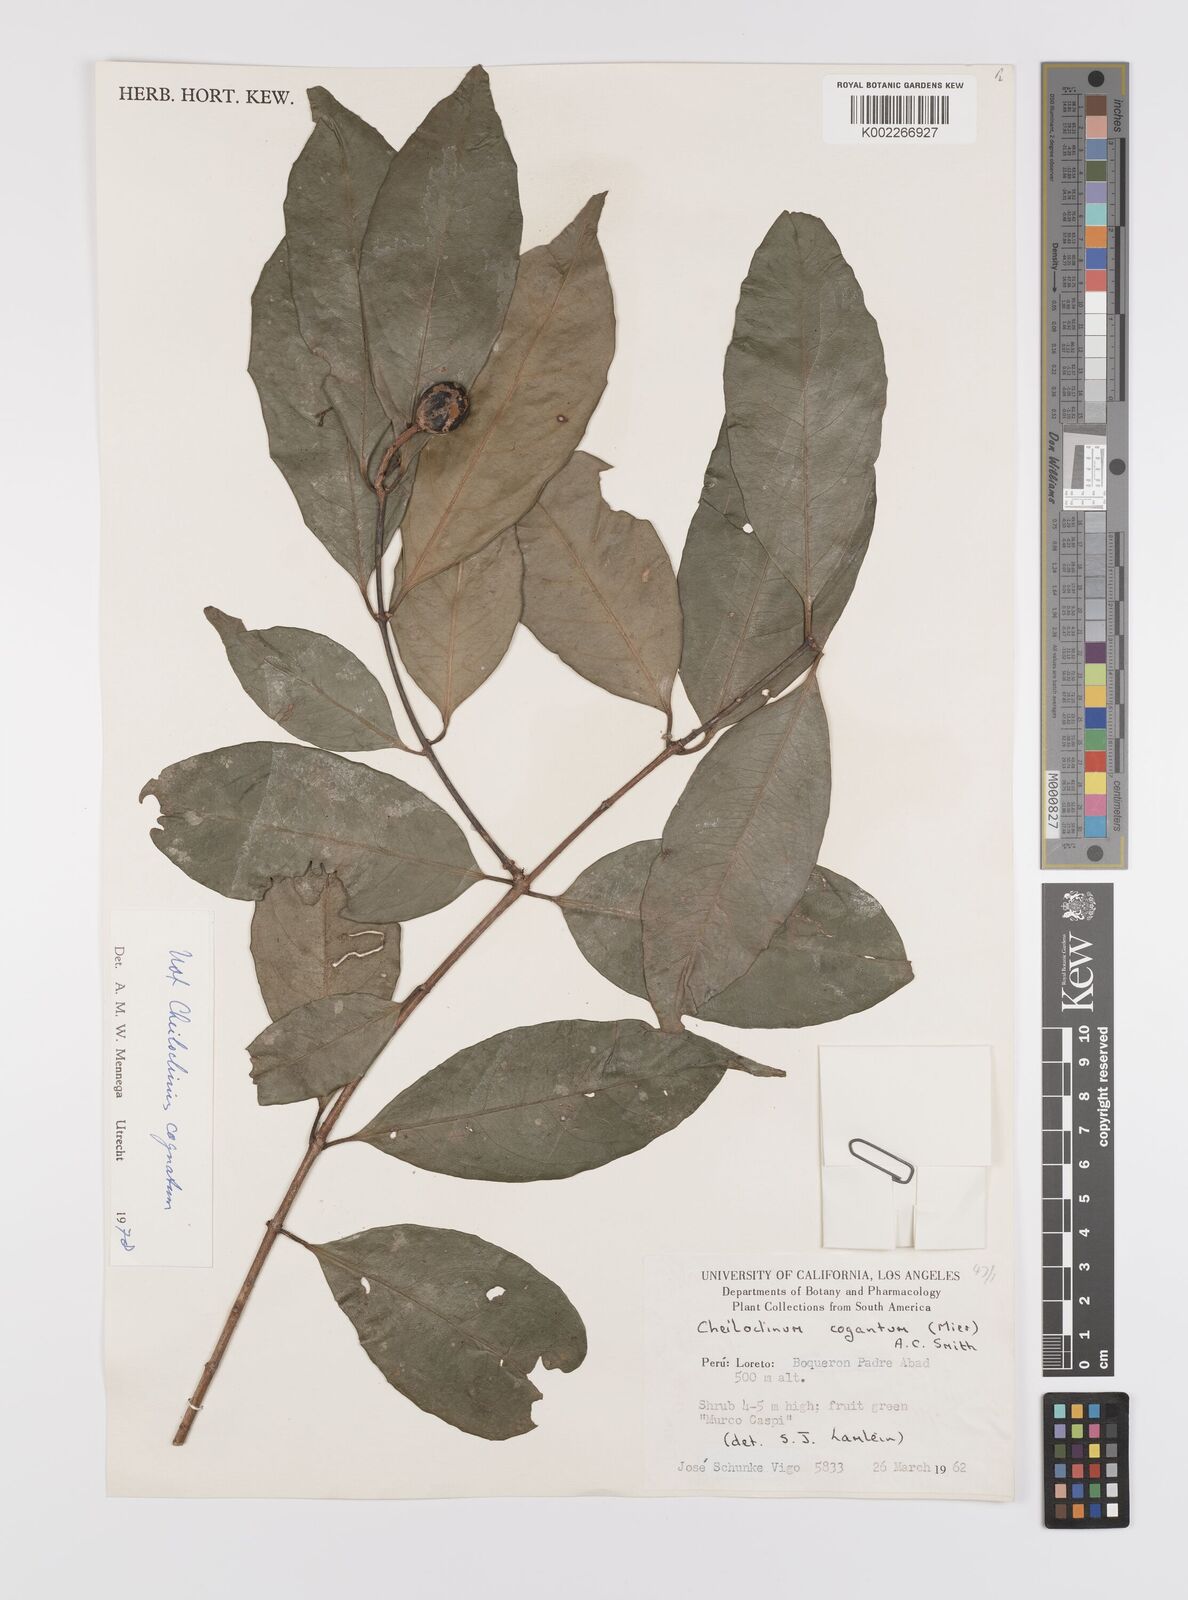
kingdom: Plantae
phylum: Tracheophyta
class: Magnoliopsida
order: Celastrales
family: Celastraceae
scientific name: Celastraceae
